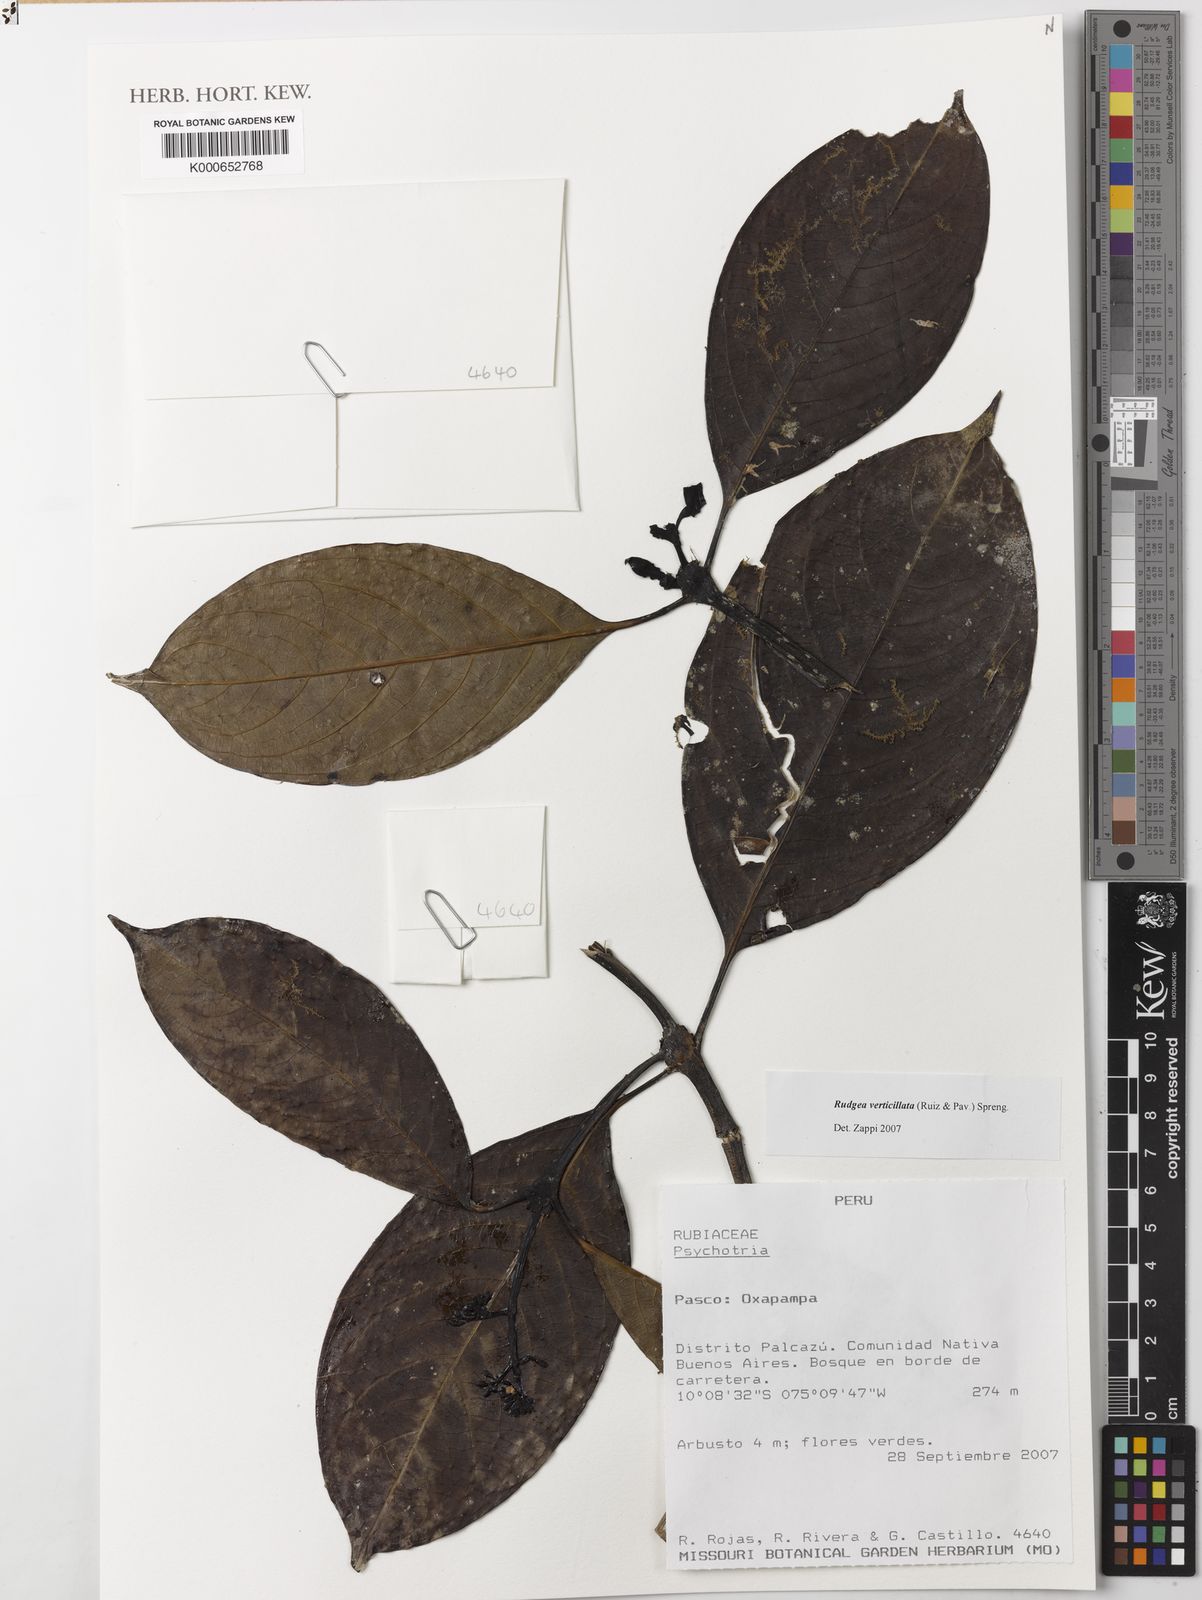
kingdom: Plantae
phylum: Tracheophyta
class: Magnoliopsida
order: Gentianales
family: Rubiaceae
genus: Rudgea
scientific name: Rudgea verticillata
